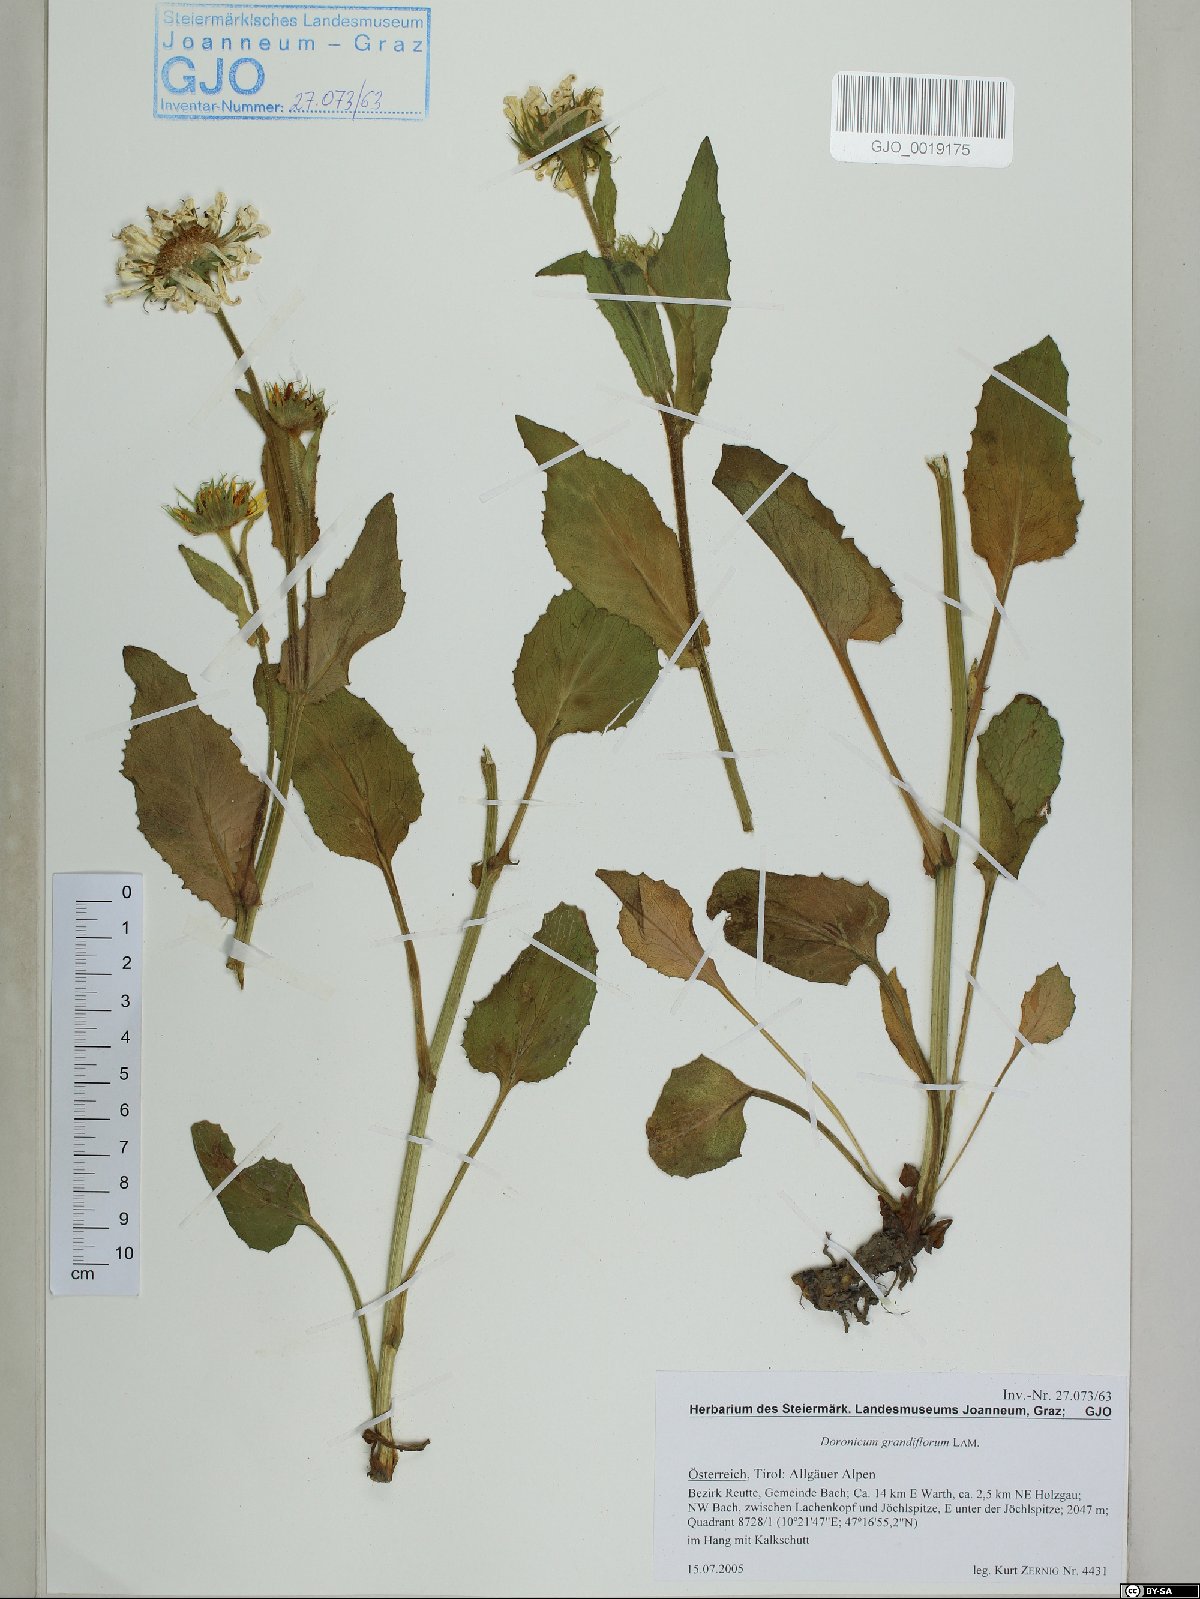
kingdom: Plantae
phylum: Tracheophyta
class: Magnoliopsida
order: Asterales
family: Asteraceae
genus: Doronicum
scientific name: Doronicum grandiflorum
